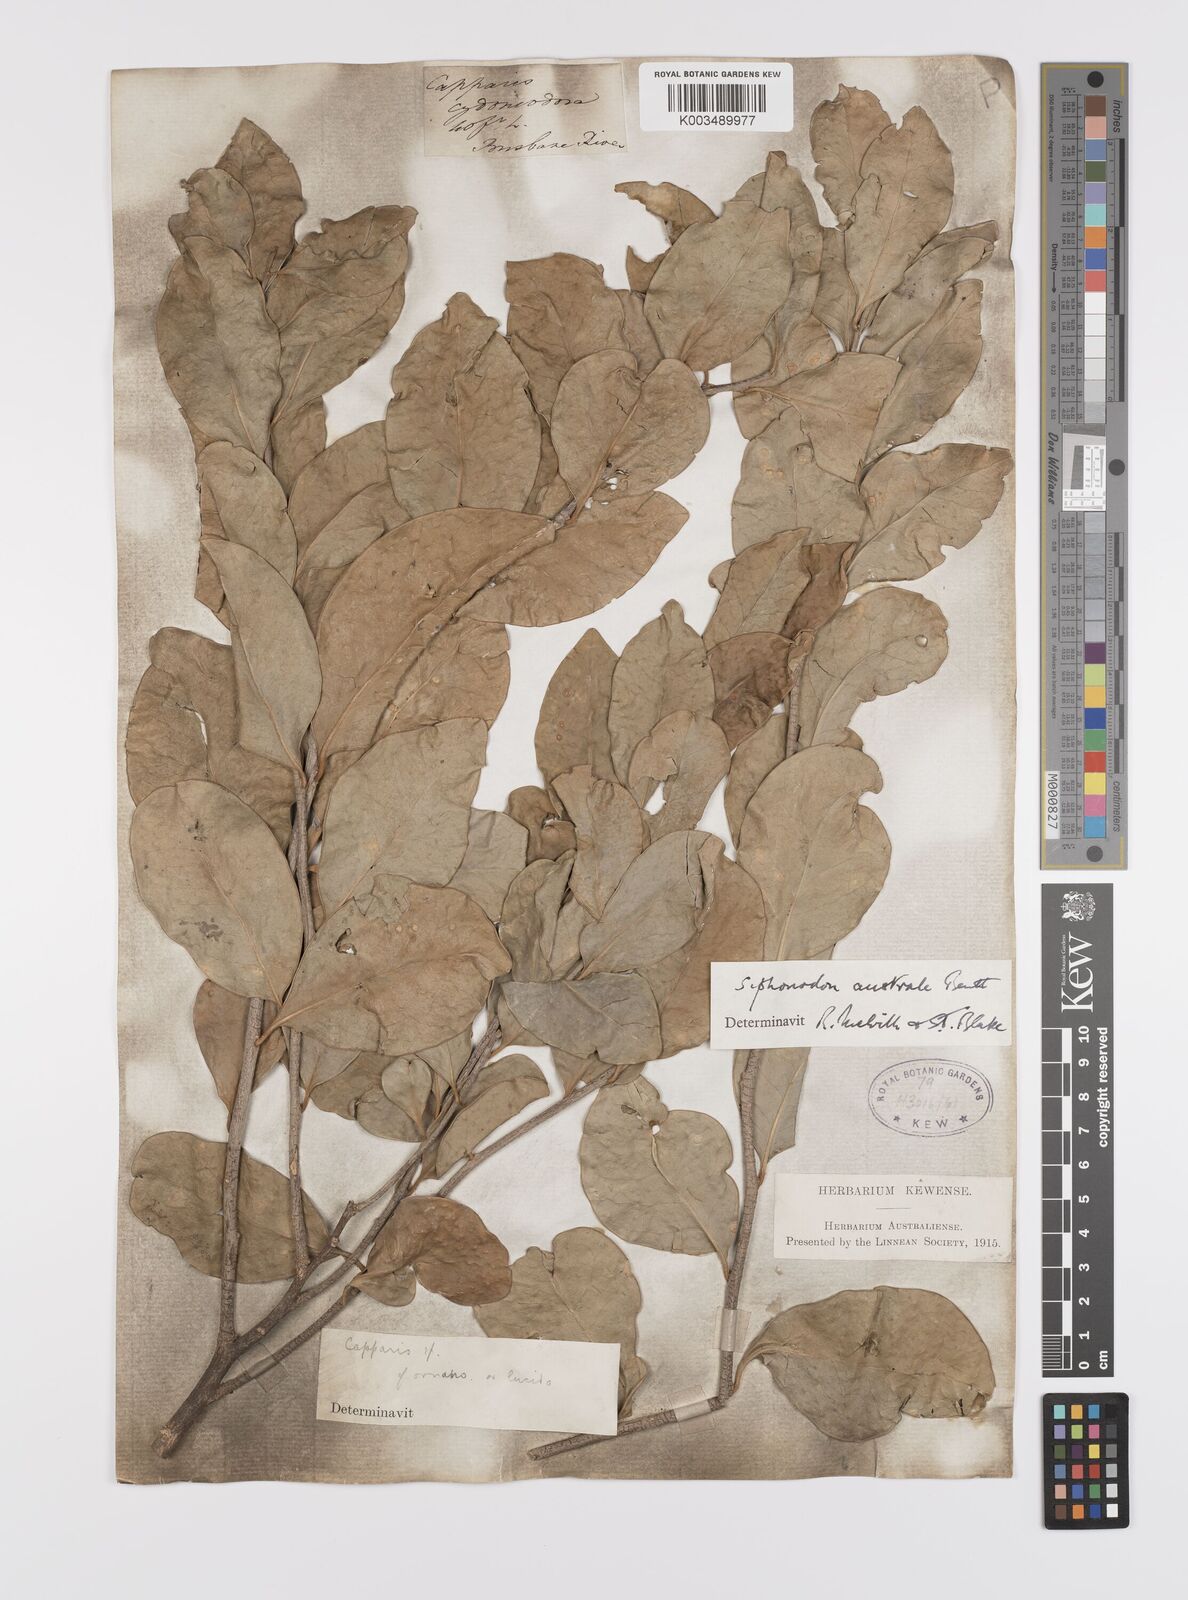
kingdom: Plantae
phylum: Tracheophyta
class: Magnoliopsida
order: Celastrales
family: Celastraceae
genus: Siphonodon
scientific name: Siphonodon australis
